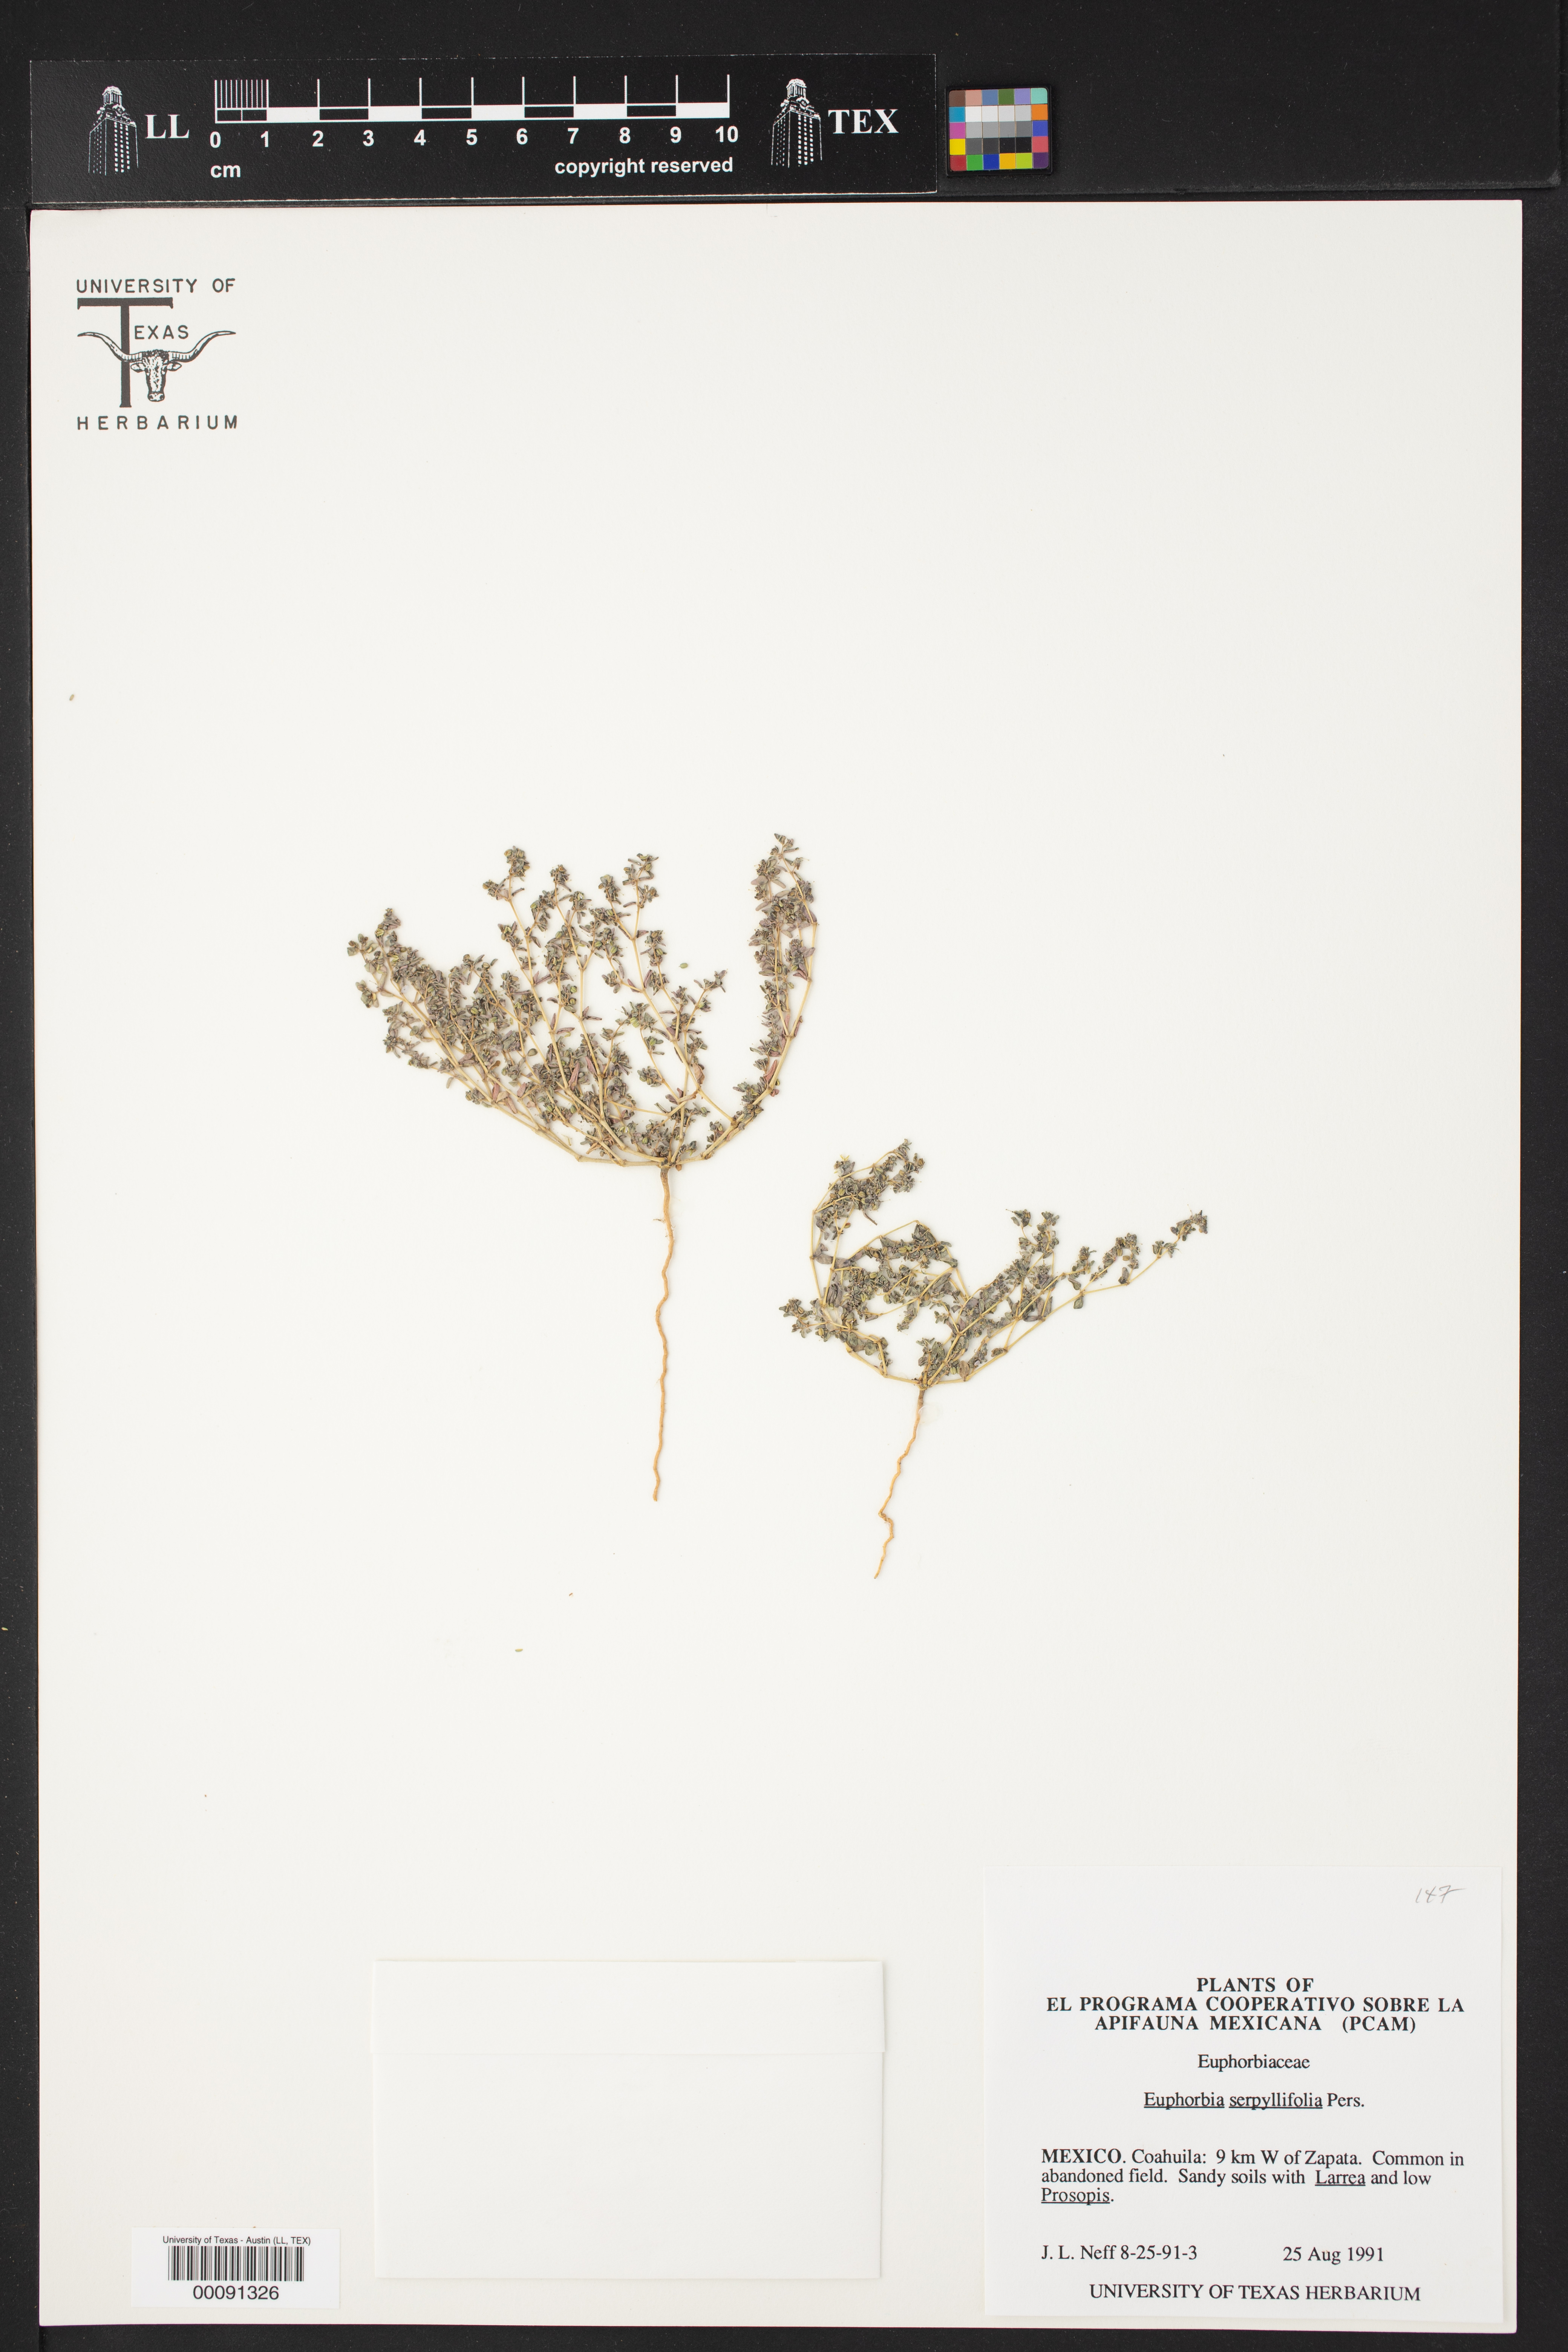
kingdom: Plantae
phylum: Tracheophyta
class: Magnoliopsida
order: Malpighiales
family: Euphorbiaceae
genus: Euphorbia
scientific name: Euphorbia serpillifolia
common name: Thyme-leaf spurge
